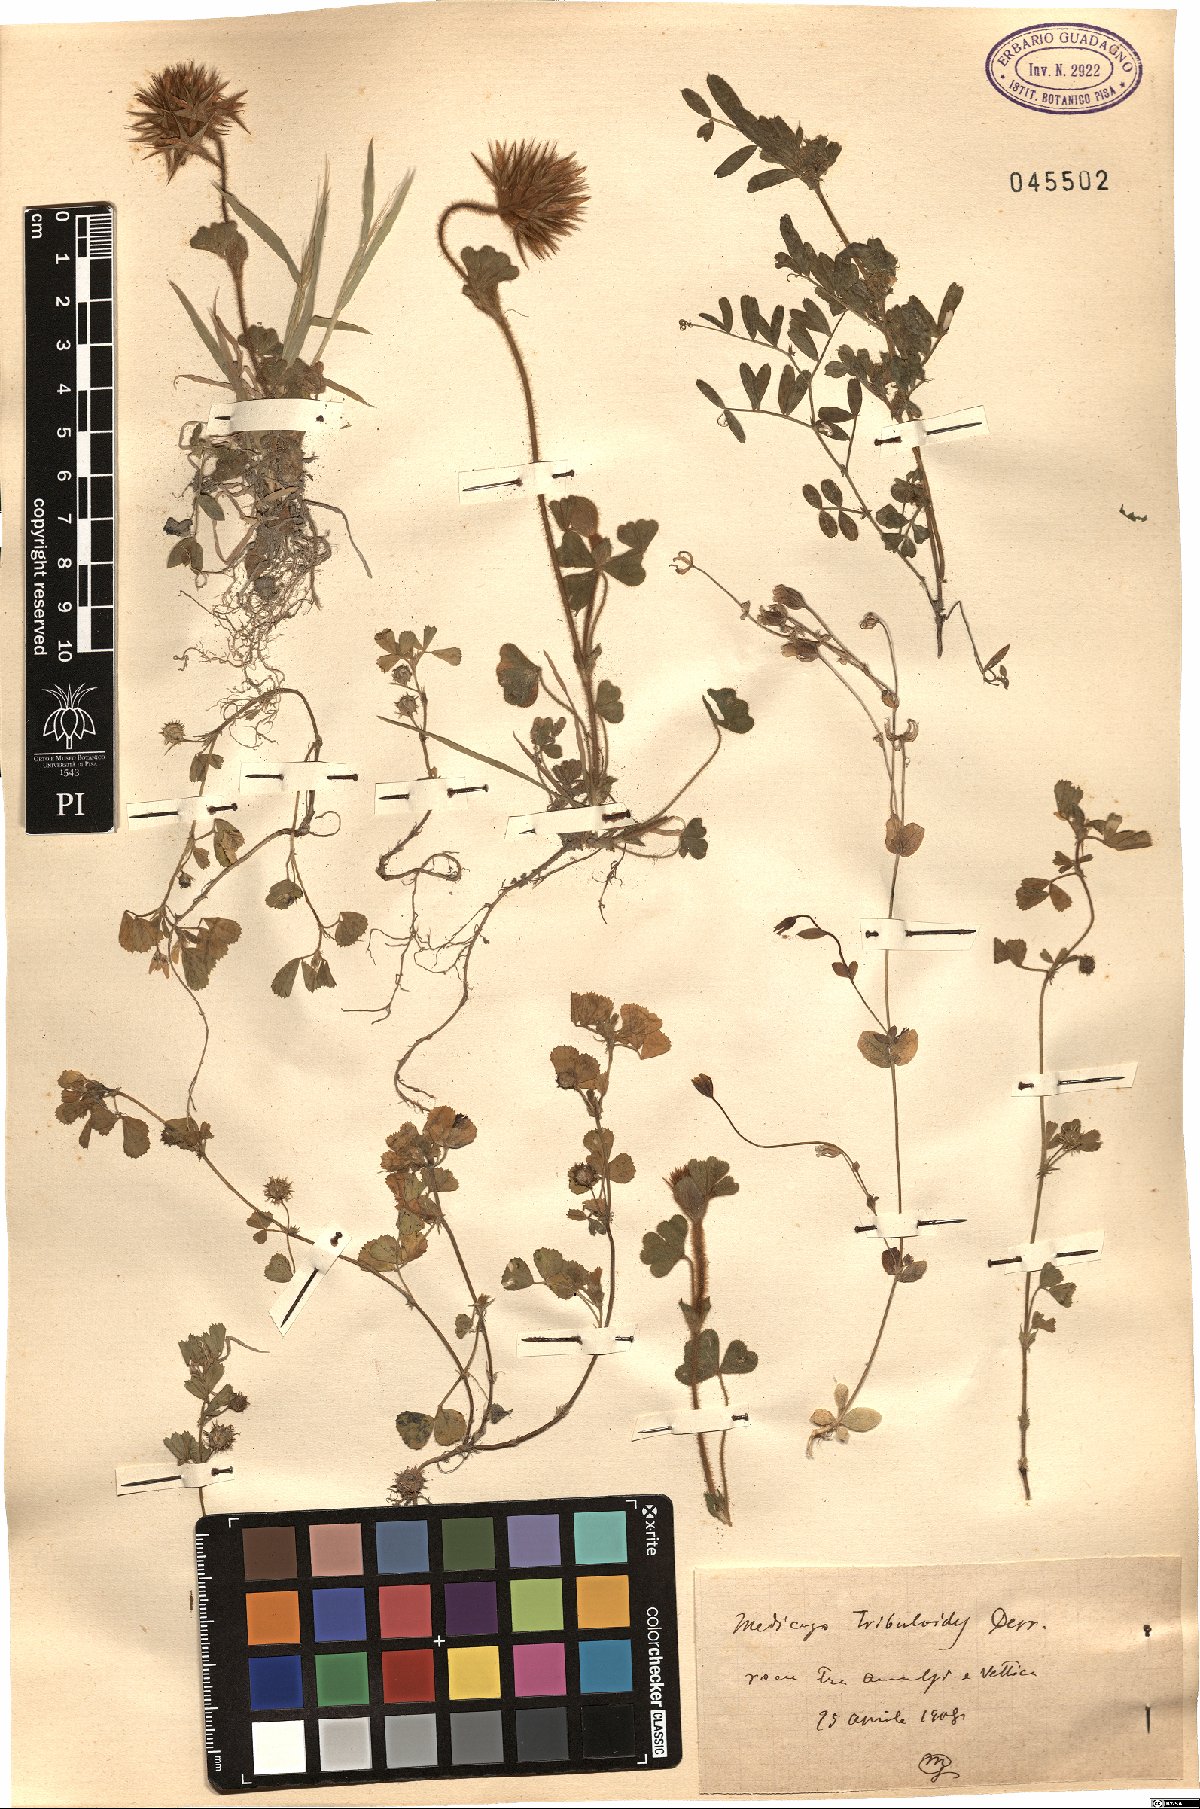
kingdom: Plantae
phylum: Tracheophyta
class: Magnoliopsida
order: Fabales
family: Fabaceae
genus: Medicago
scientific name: Medicago truncatula
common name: Strong-spined medick
